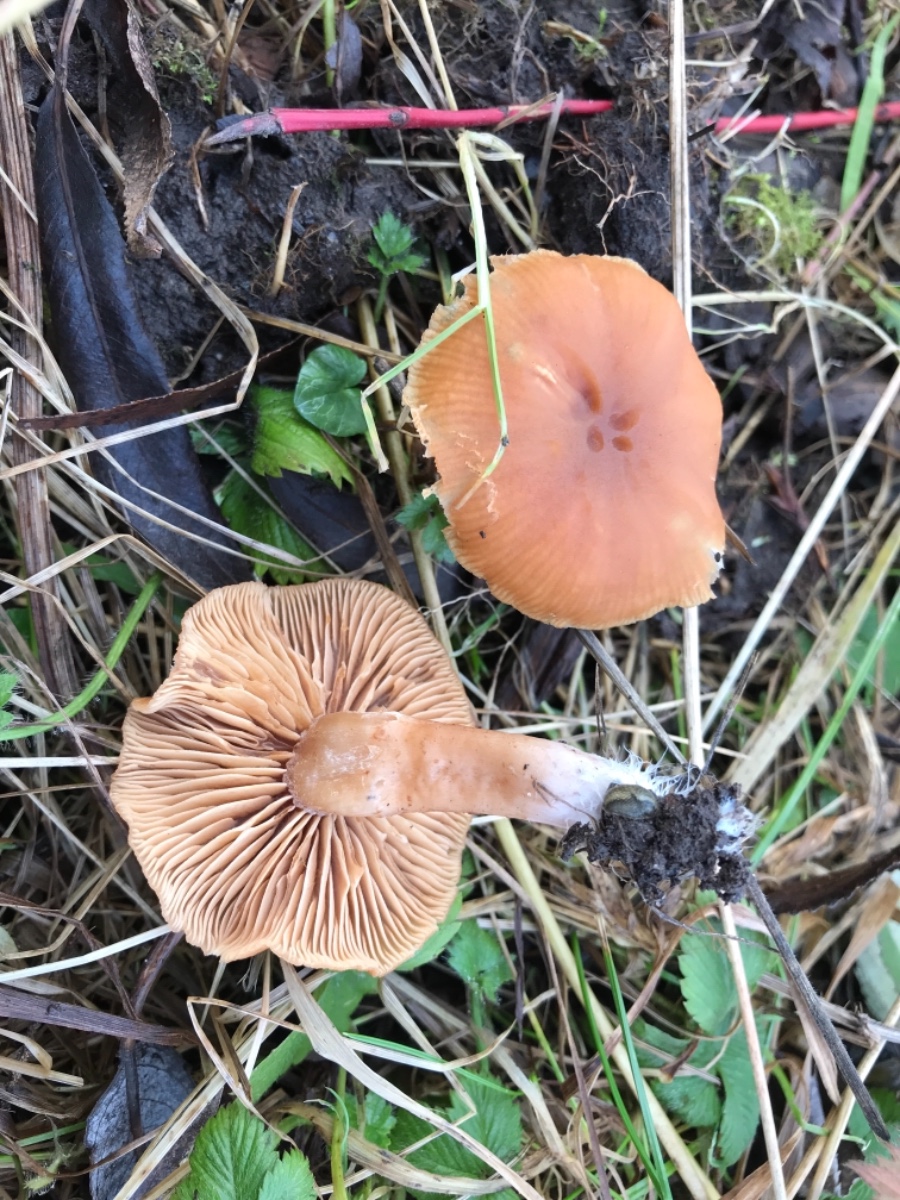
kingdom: Fungi
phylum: Basidiomycota
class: Agaricomycetes
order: Agaricales
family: Tubariaceae
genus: Tubaria
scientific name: Tubaria furfuracea
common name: kliddet fnughat
